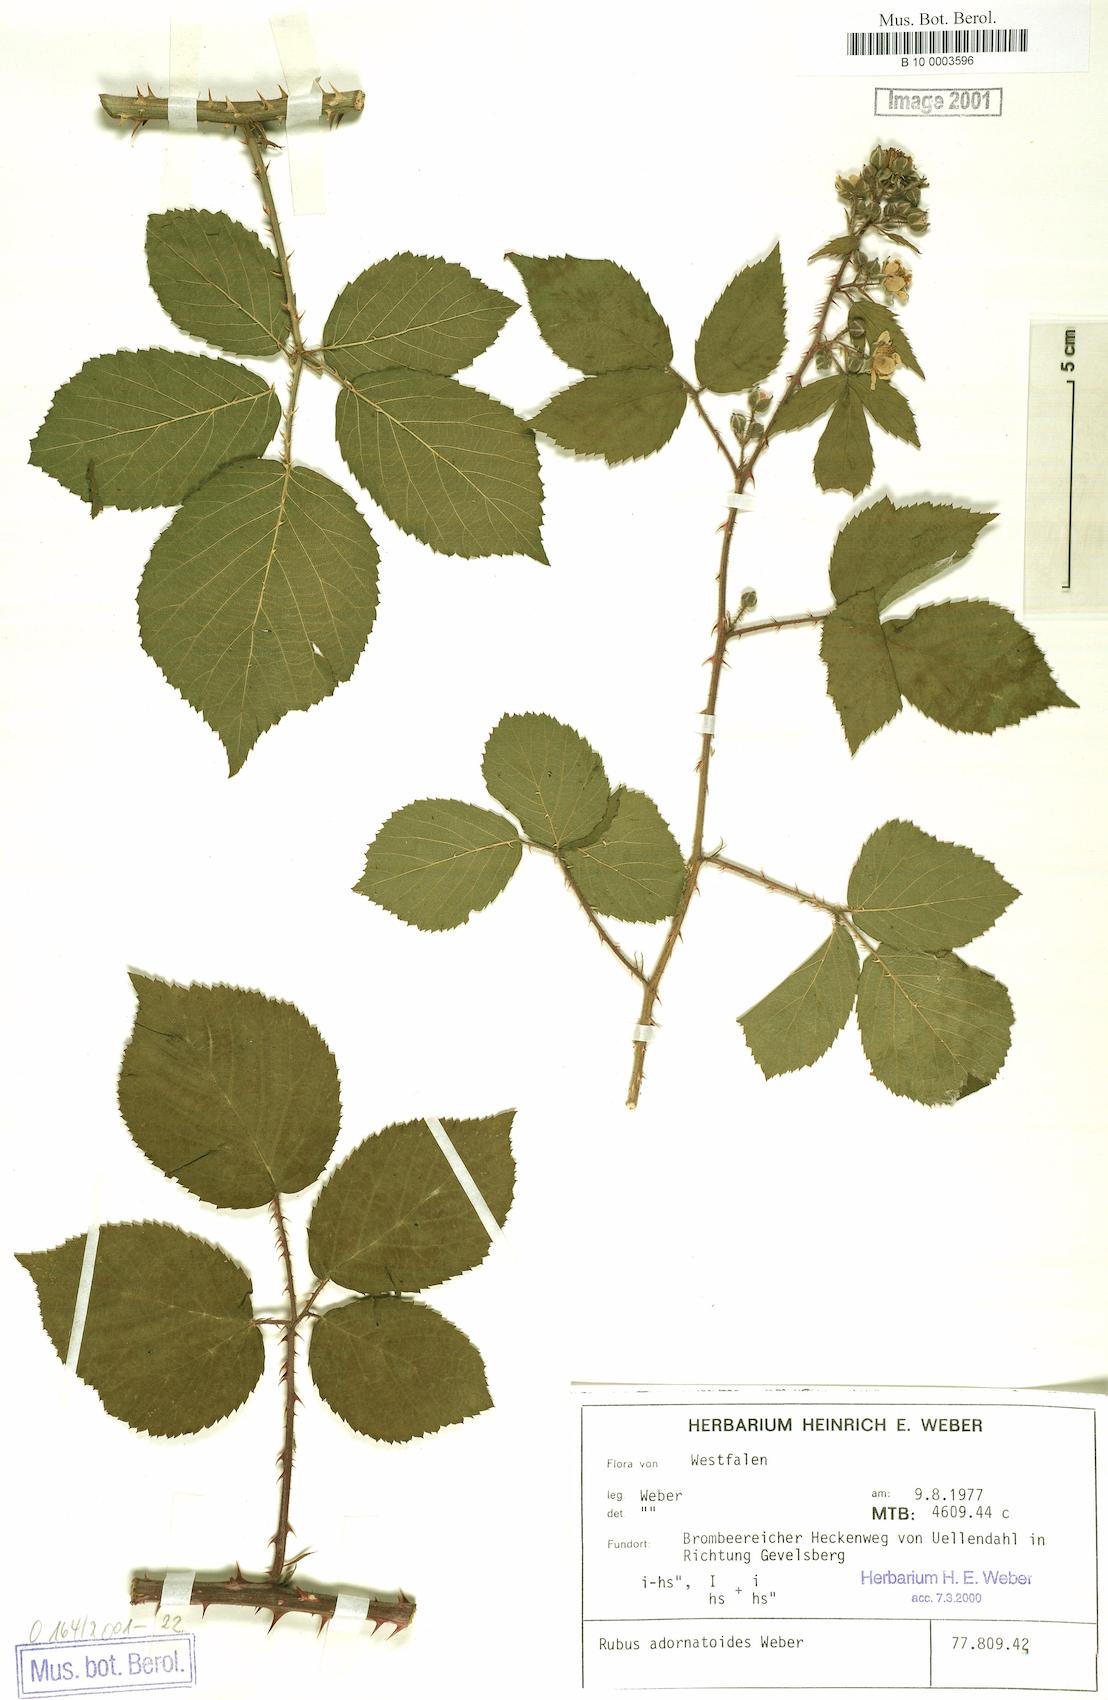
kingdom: Plantae
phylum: Tracheophyta
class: Magnoliopsida
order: Rosales
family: Rosaceae
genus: Rubus
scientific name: Rubus gravetii
